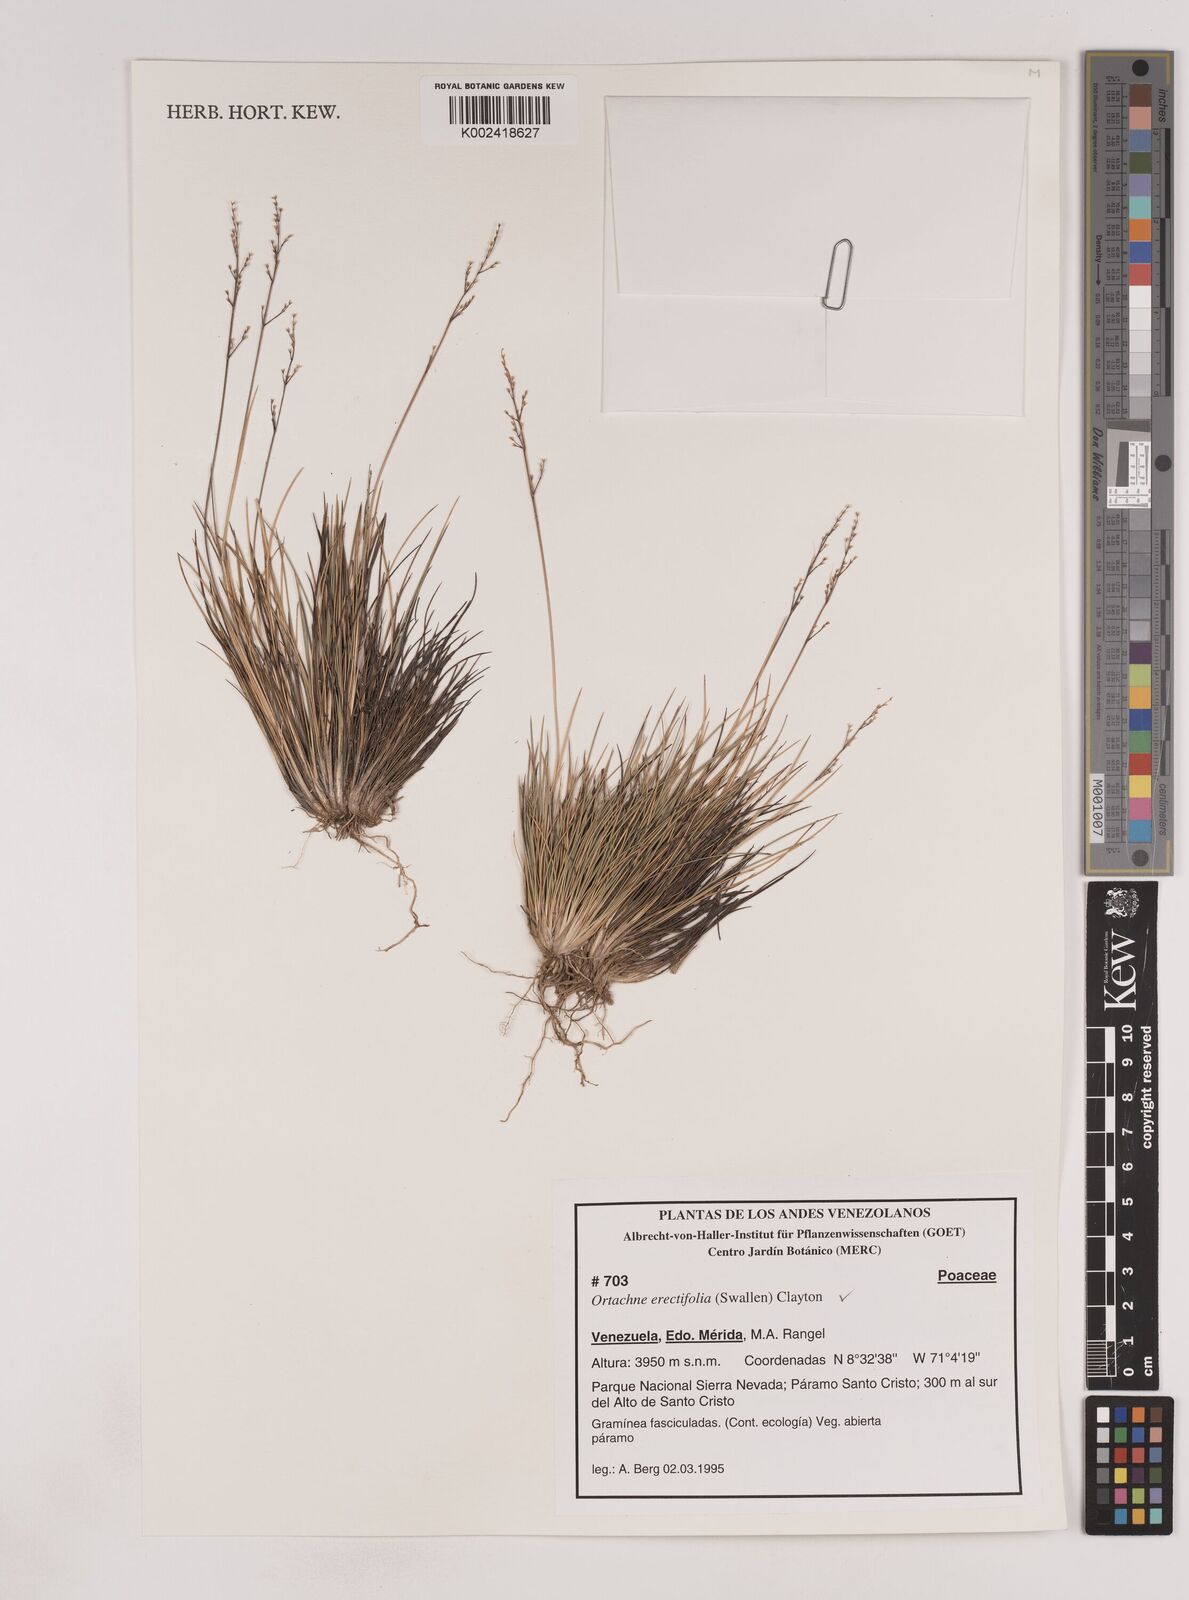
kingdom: Plantae
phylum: Tracheophyta
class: Liliopsida
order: Poales
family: Poaceae
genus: Lorenzochloa
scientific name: Lorenzochloa erectifolia
